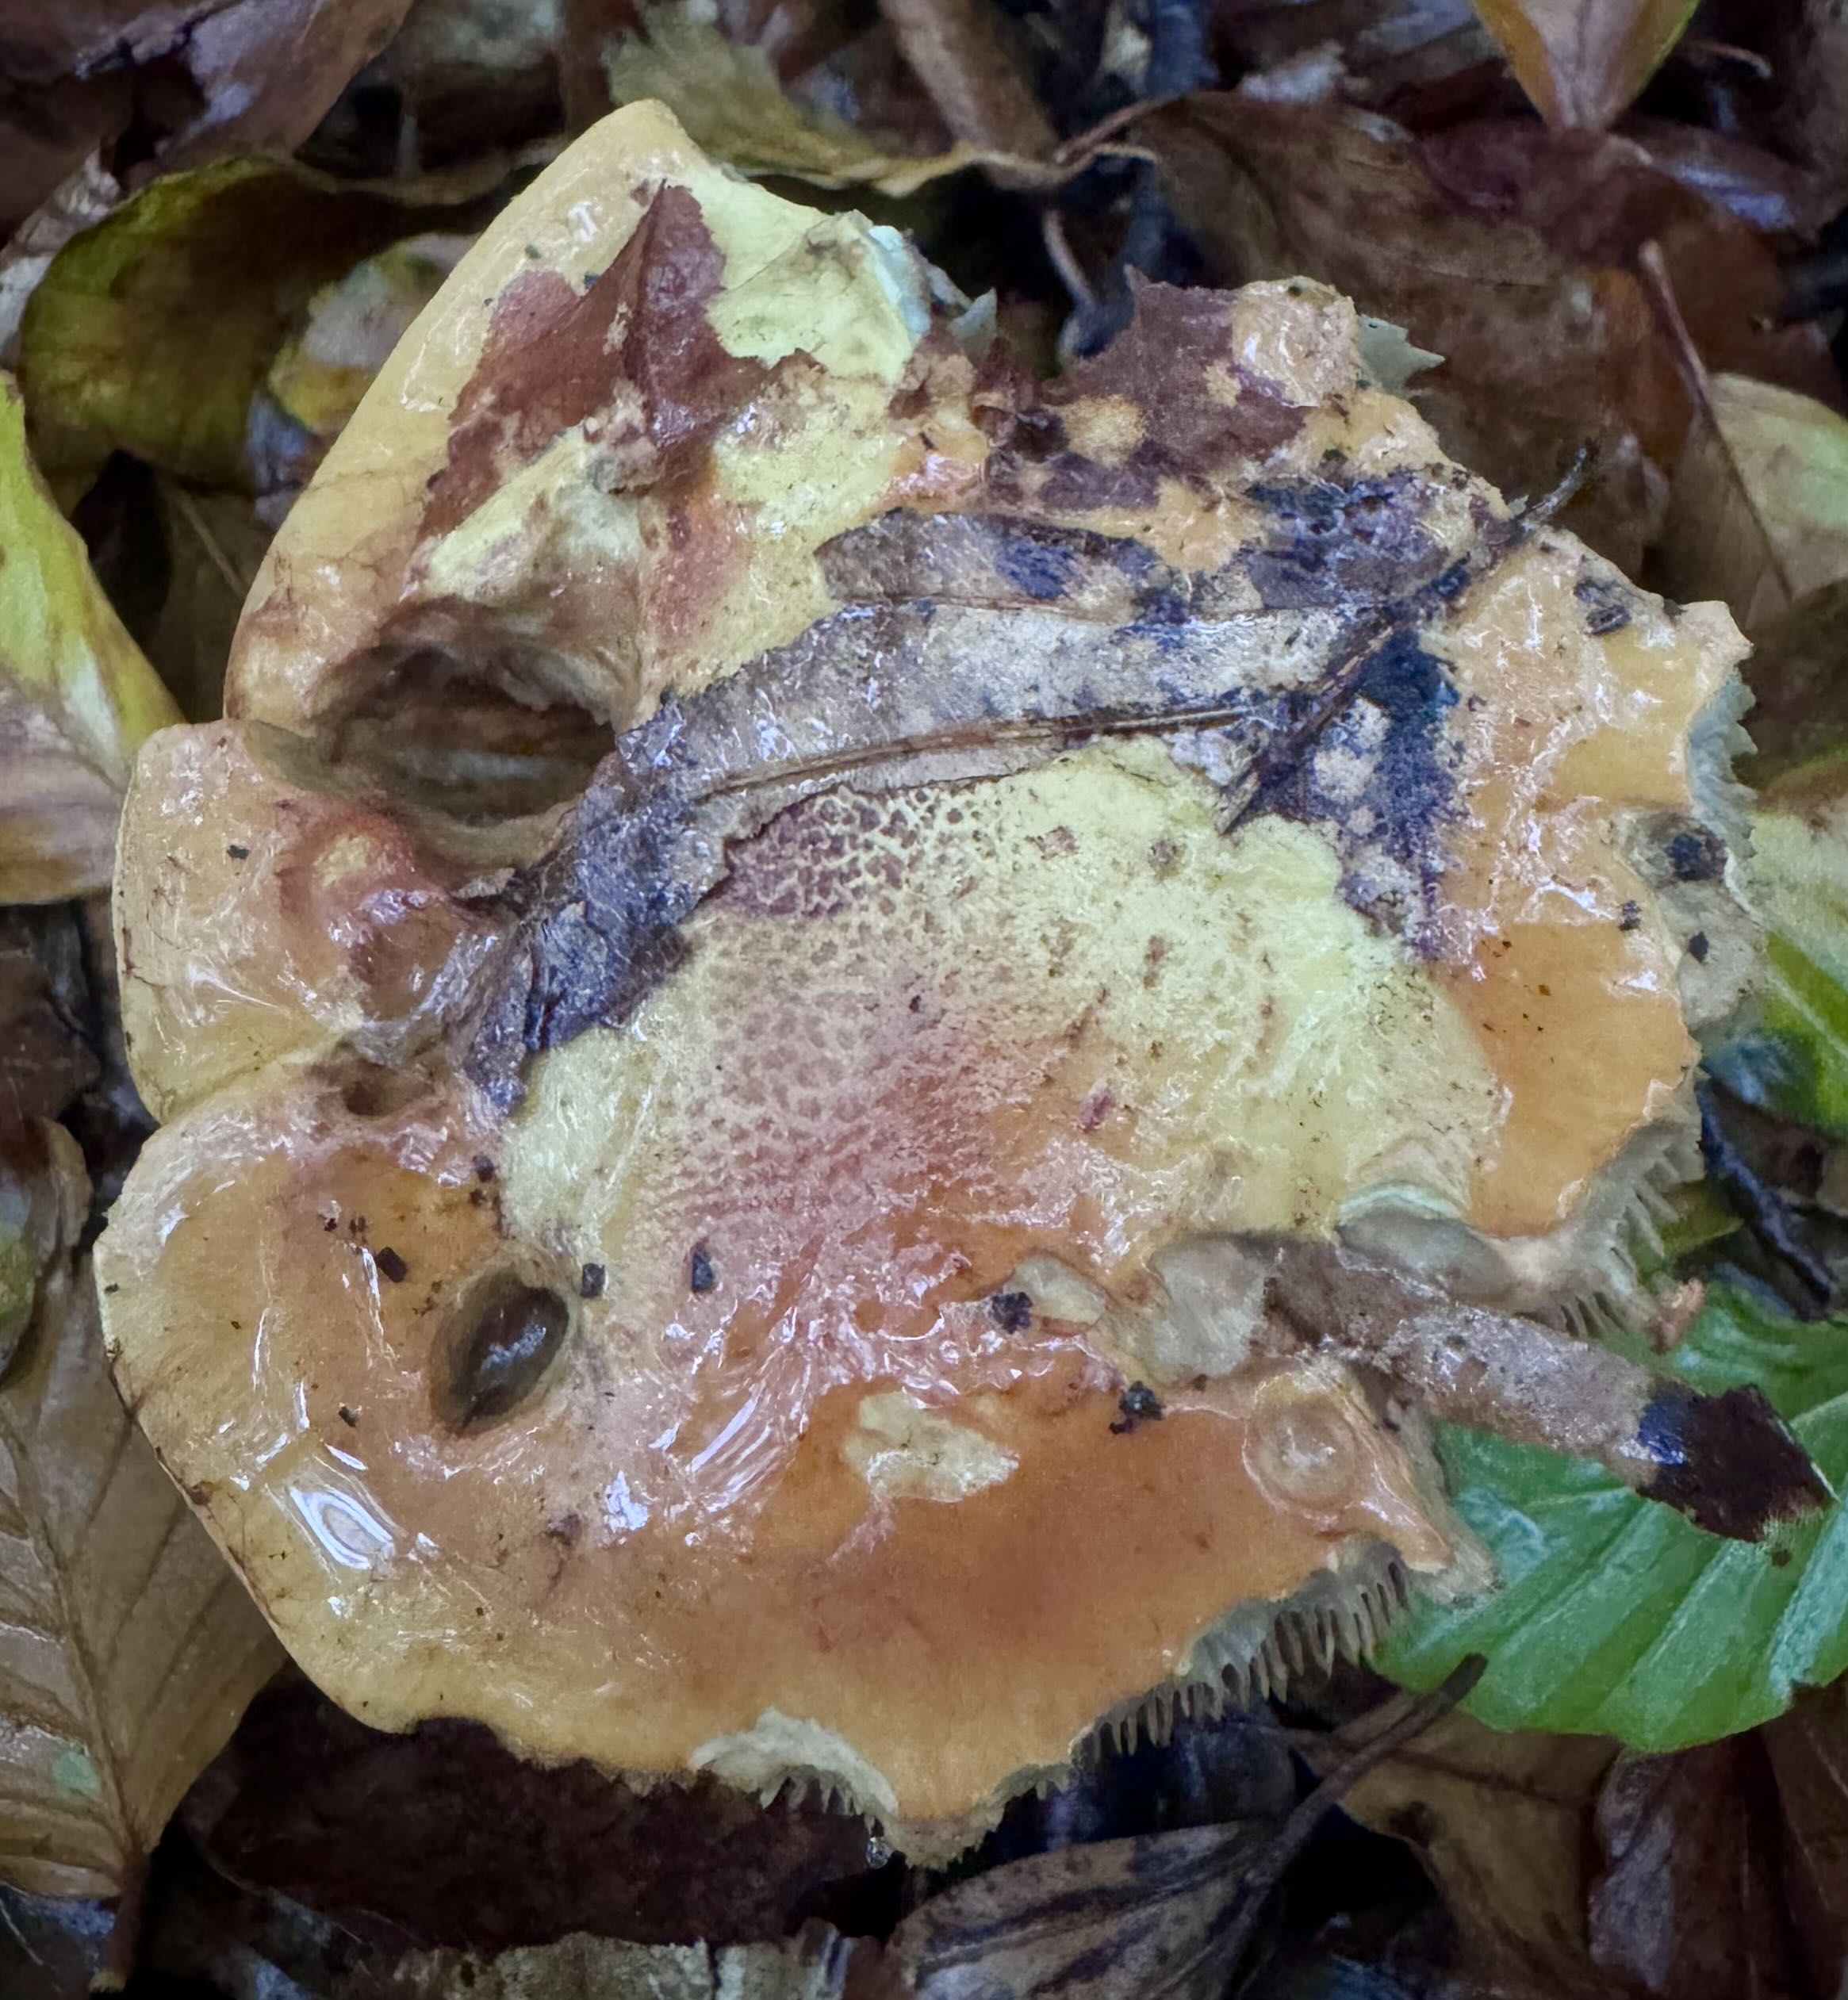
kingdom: Fungi
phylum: Basidiomycota
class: Agaricomycetes
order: Agaricales
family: Cortinariaceae
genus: Calonarius
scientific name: Calonarius elegantissimus
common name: orangegylden slørhat
